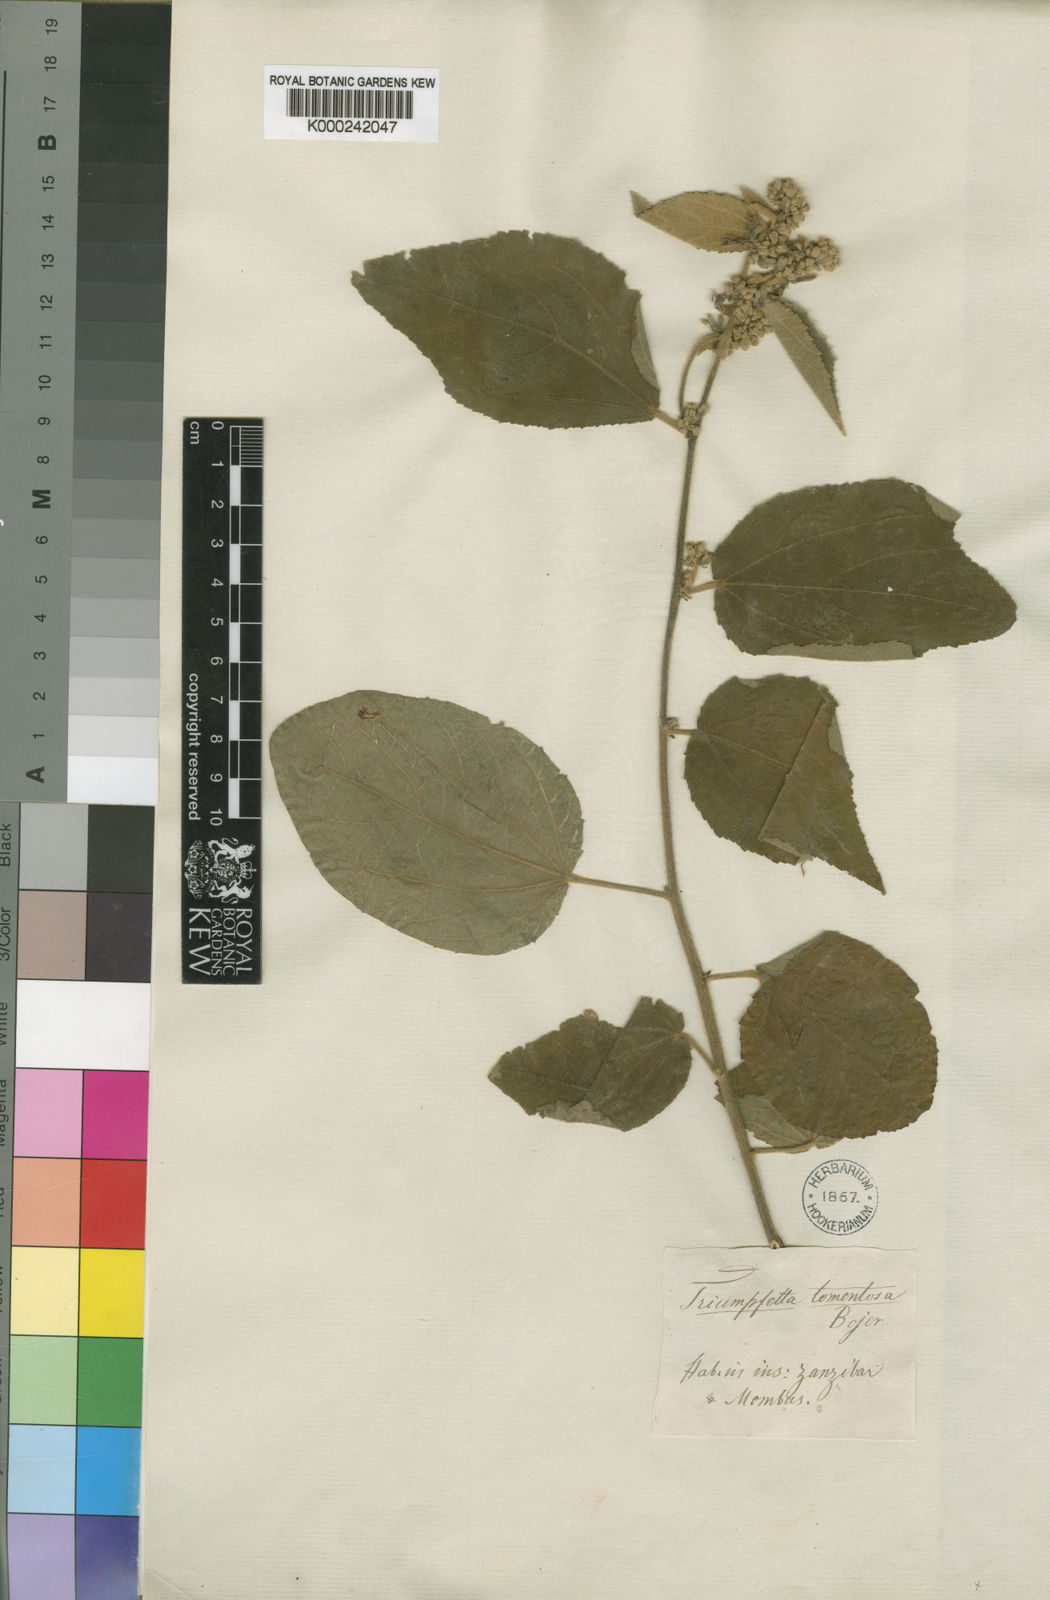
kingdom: Plantae
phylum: Tracheophyta
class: Magnoliopsida
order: Malvales
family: Malvaceae
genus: Triumfetta
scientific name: Triumfetta
